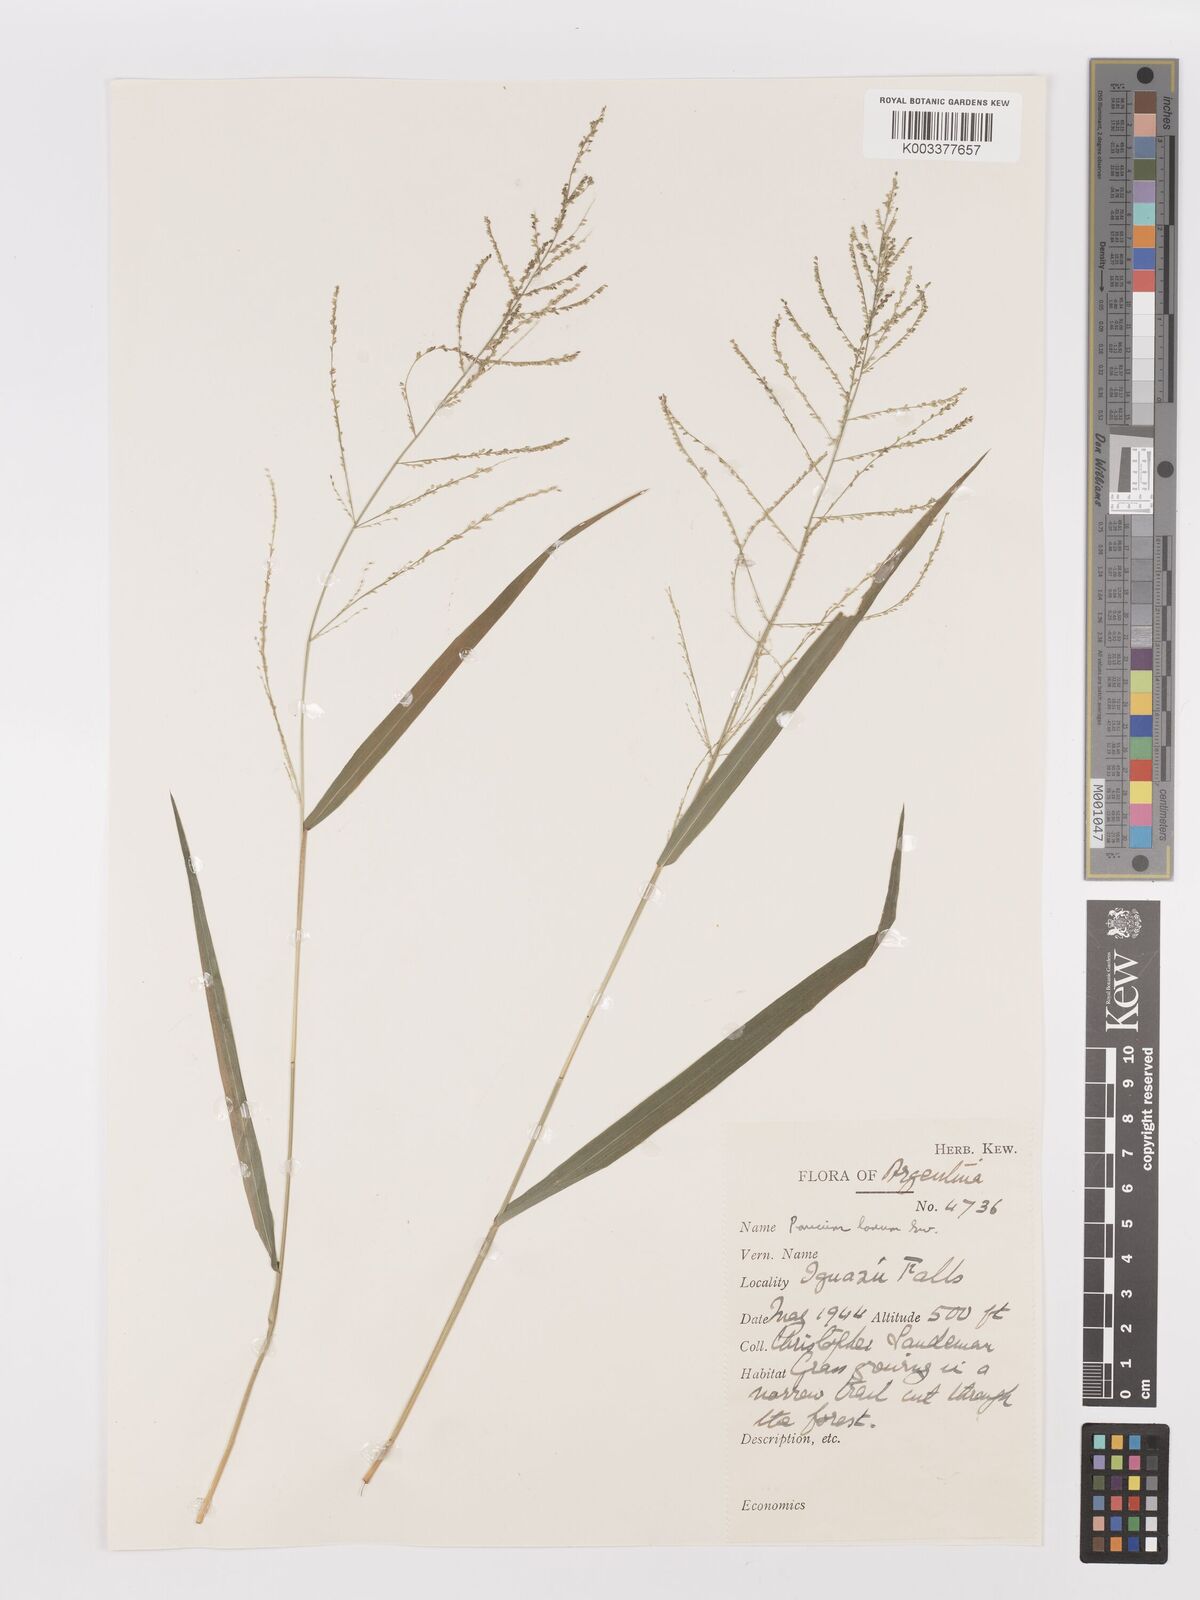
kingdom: Plantae
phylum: Tracheophyta
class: Liliopsida
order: Poales
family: Poaceae
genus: Steinchisma
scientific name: Steinchisma laxum
